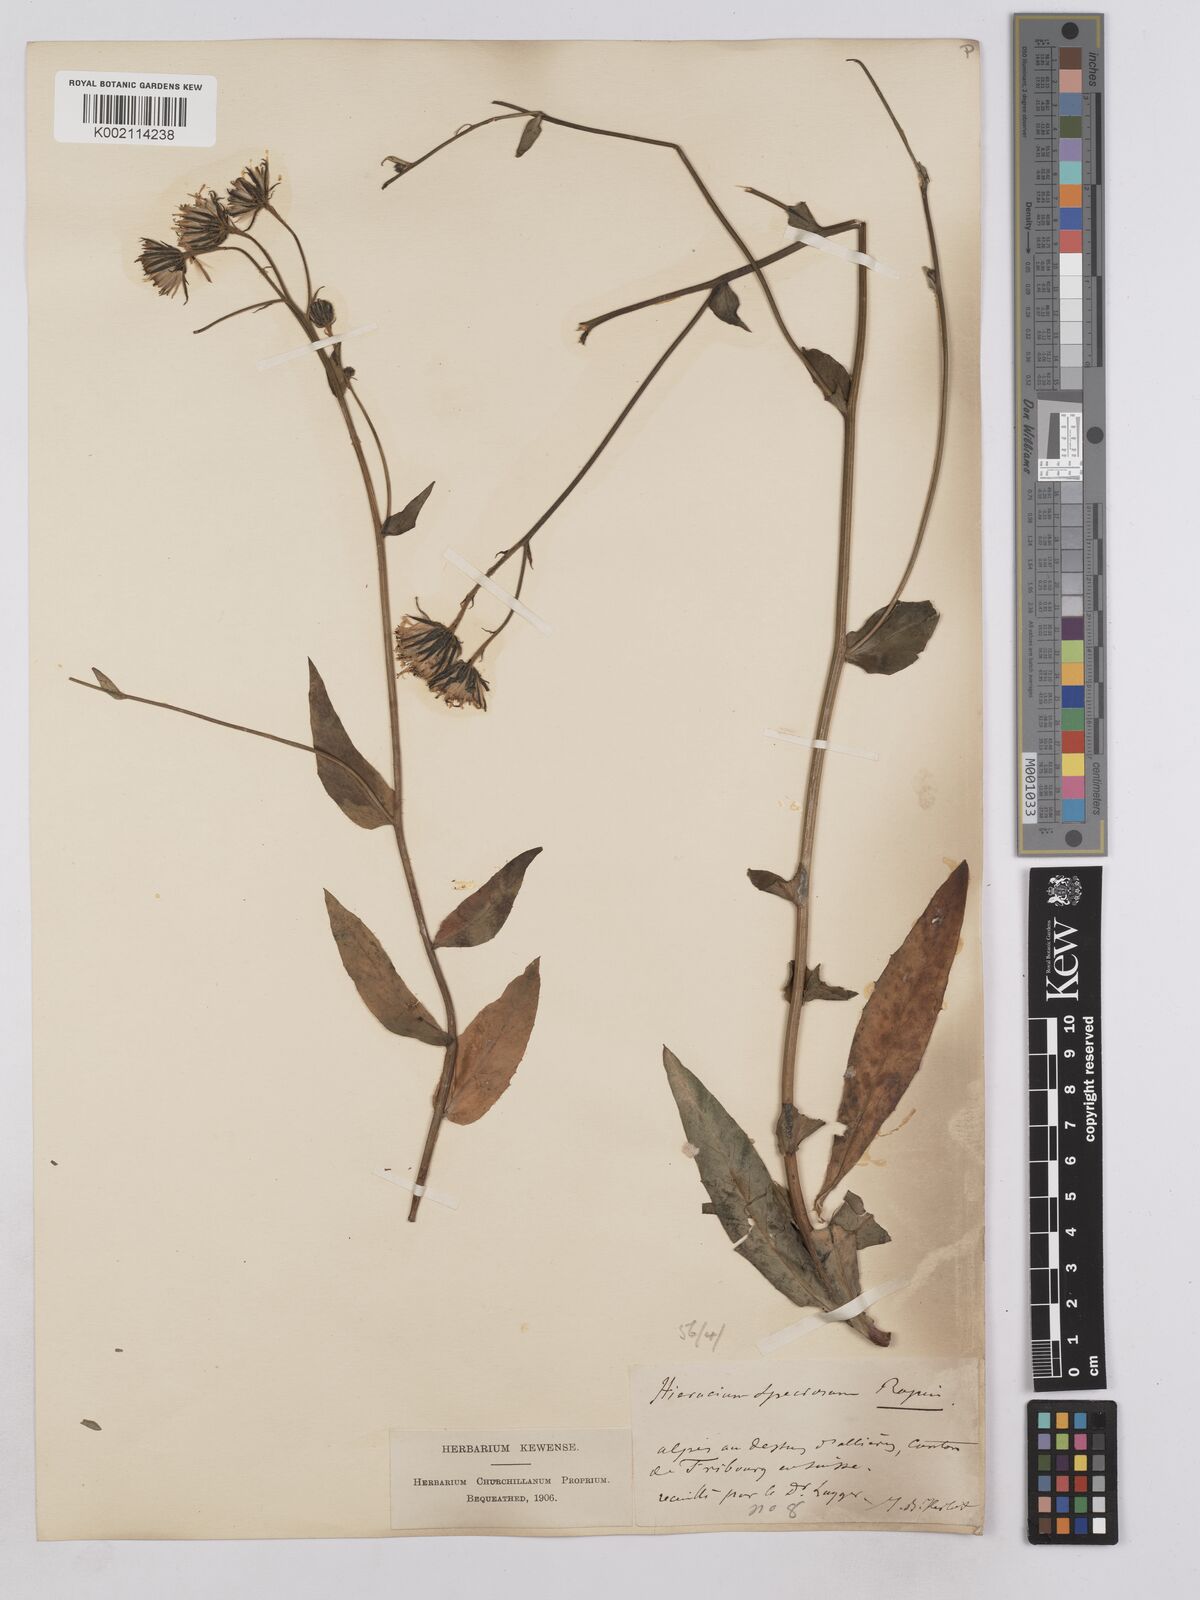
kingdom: Plantae
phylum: Tracheophyta
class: Magnoliopsida
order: Asterales
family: Asteraceae
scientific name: Asteraceae
